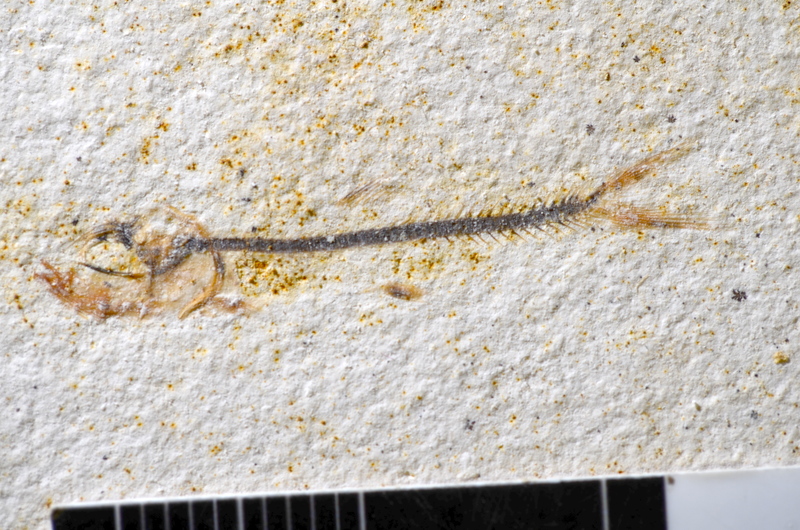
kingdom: Animalia
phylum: Chordata
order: Salmoniformes
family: Orthogonikleithridae
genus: Orthogonikleithrus
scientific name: Orthogonikleithrus hoelli
